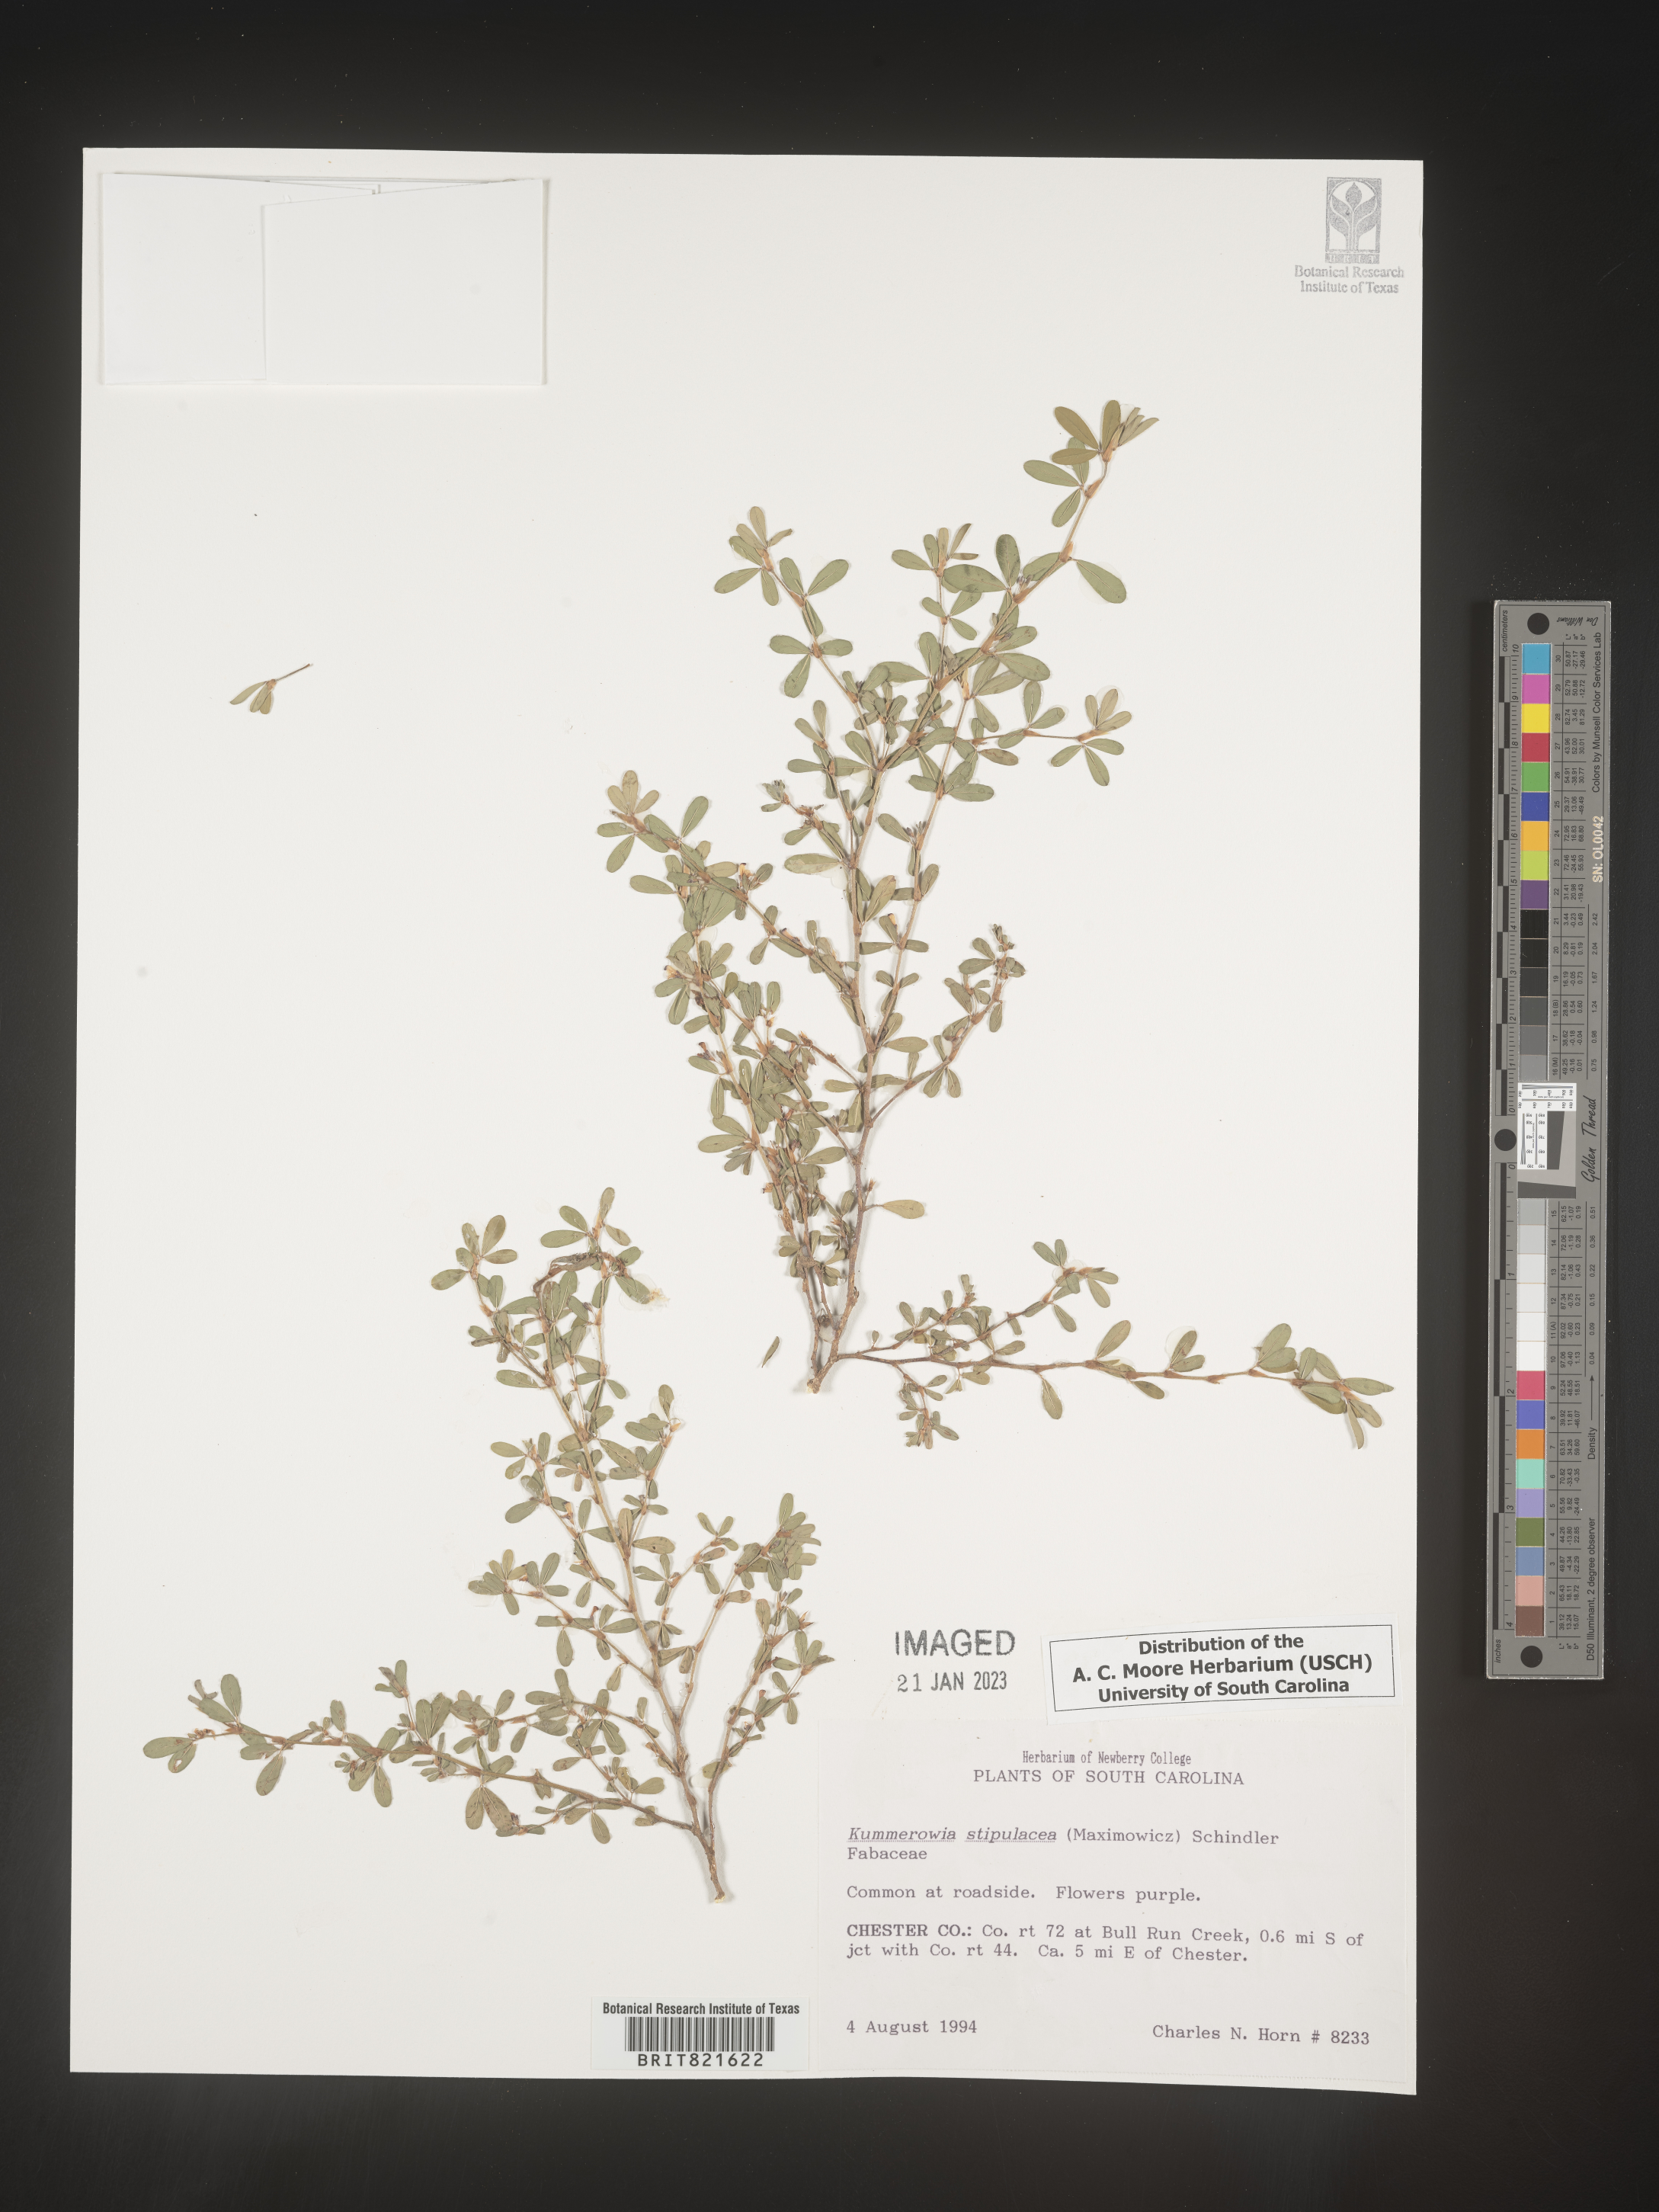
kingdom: Plantae
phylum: Tracheophyta
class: Magnoliopsida
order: Fabales
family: Fabaceae
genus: Kummerowia
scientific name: Kummerowia
